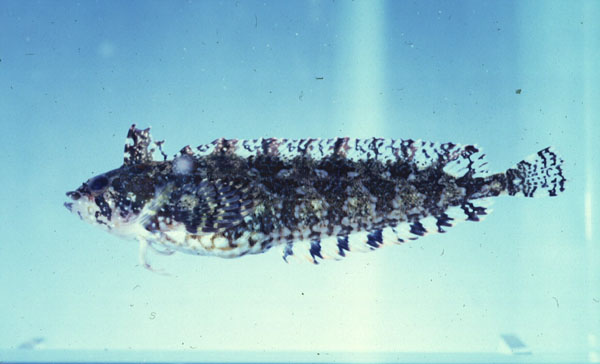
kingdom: Animalia
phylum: Chordata
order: Perciformes
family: Clinidae
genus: Pavoclinus
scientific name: Pavoclinus laurentii
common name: Rippled klipfish
